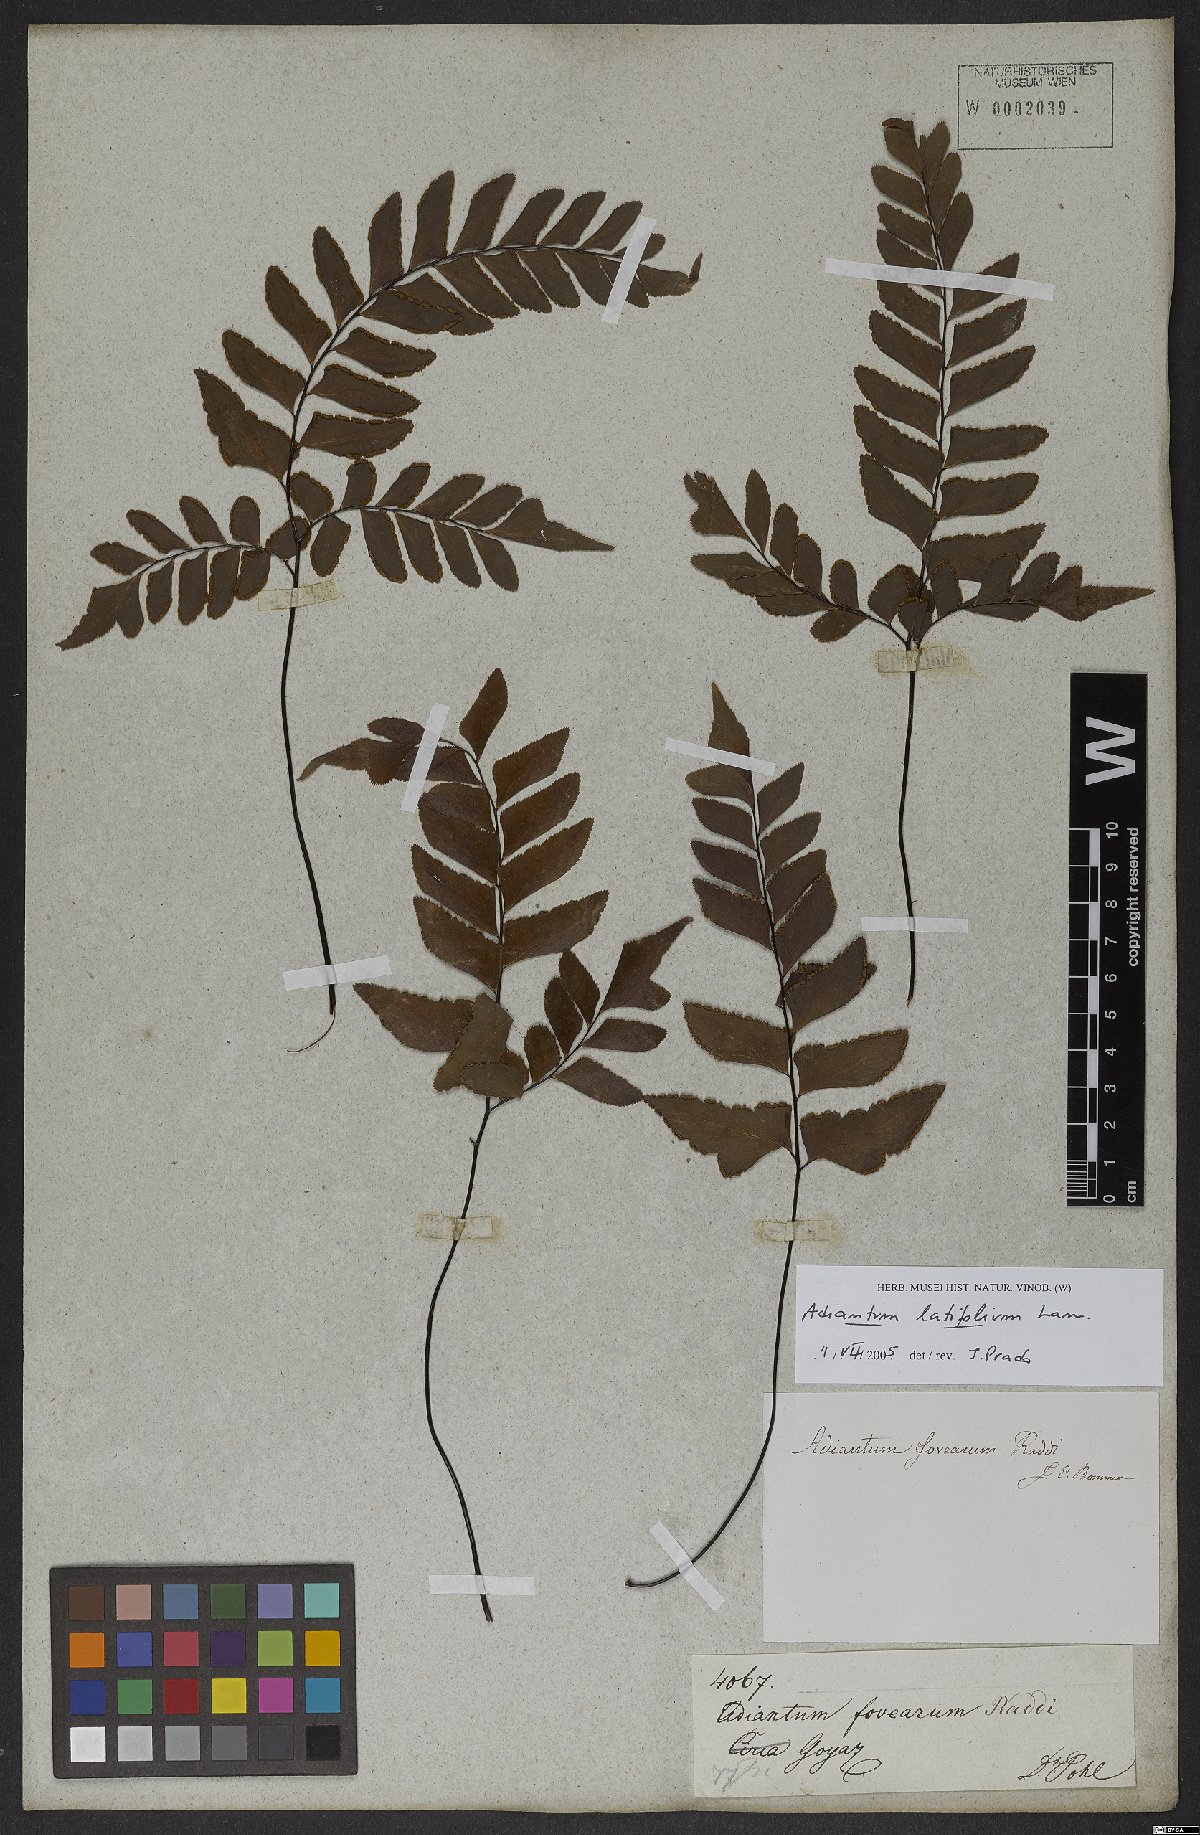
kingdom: Plantae
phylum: Tracheophyta
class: Polypodiopsida
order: Polypodiales
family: Pteridaceae
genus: Adiantum
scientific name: Adiantum latifolium
